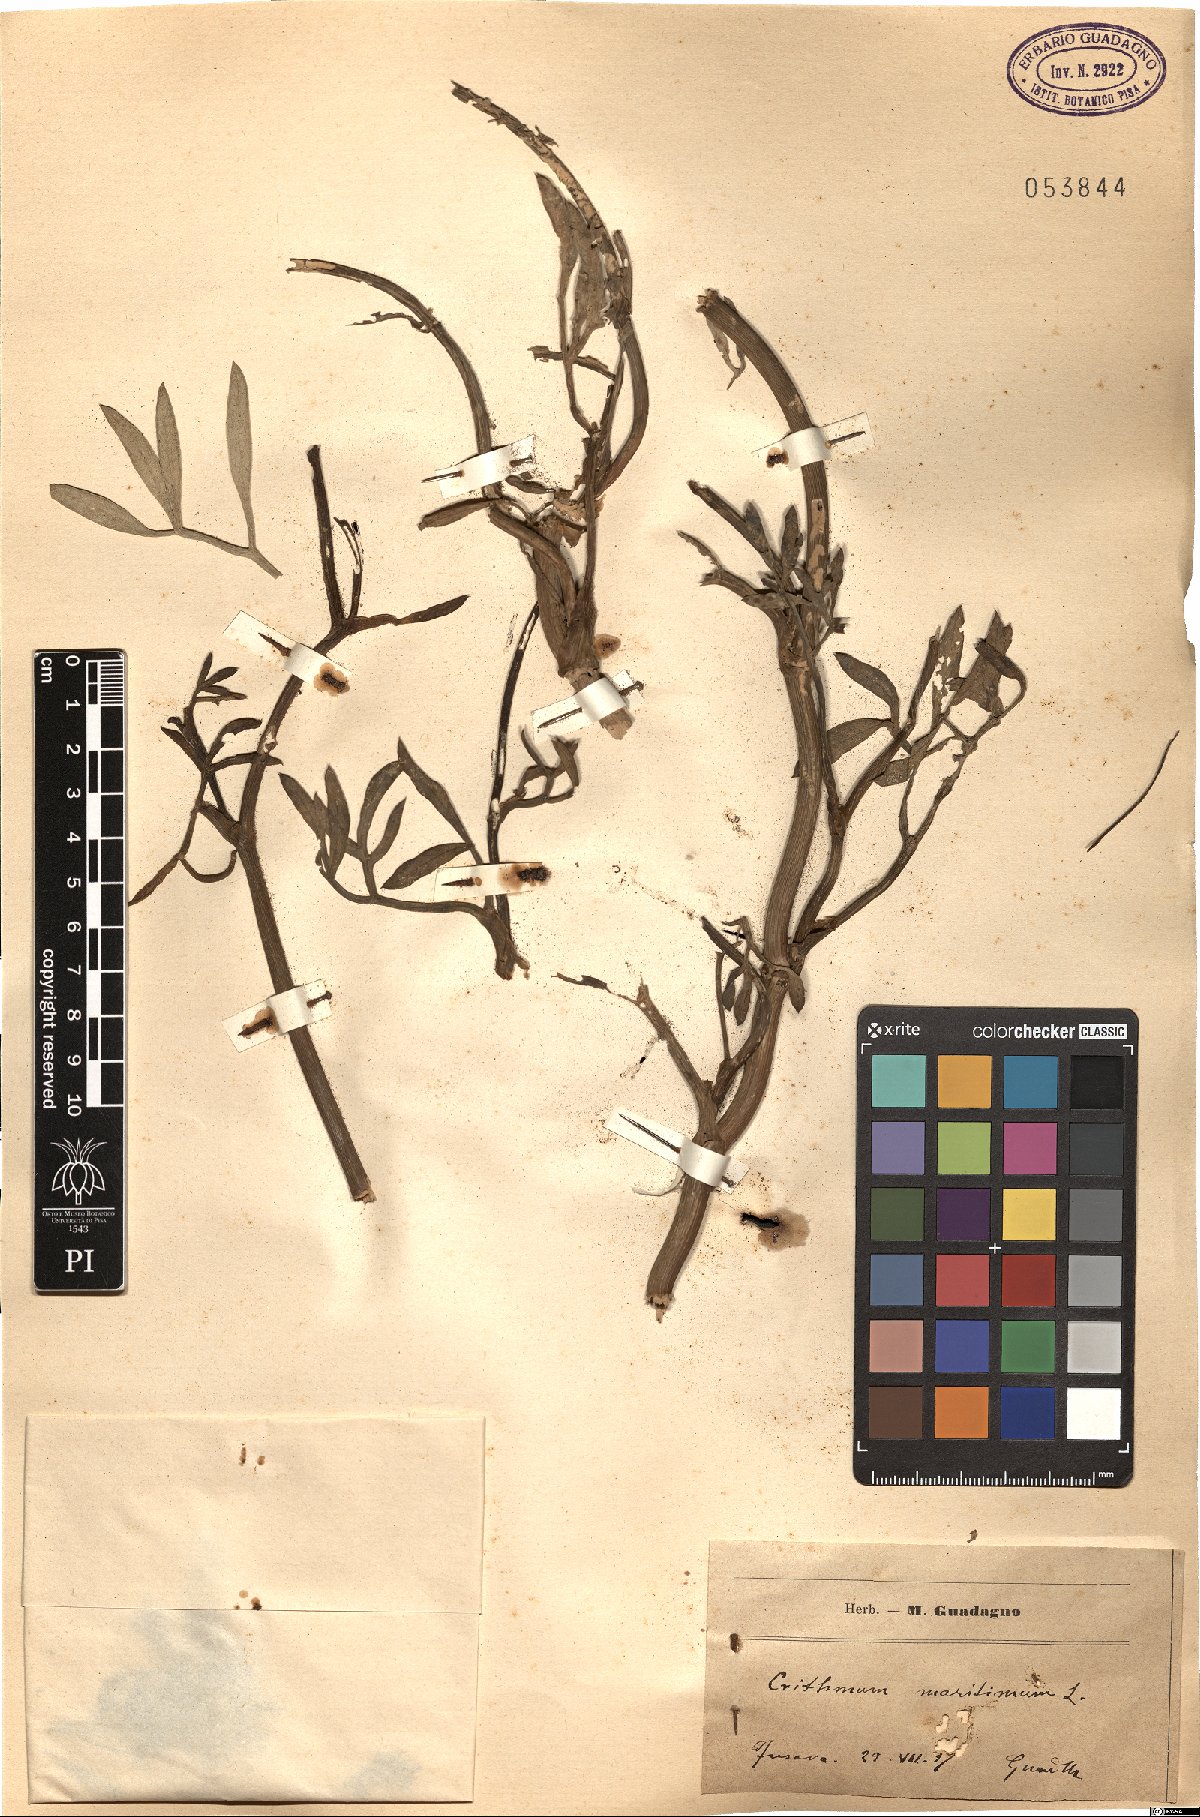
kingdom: Plantae
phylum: Tracheophyta
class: Magnoliopsida
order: Apiales
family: Apiaceae
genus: Crithmum
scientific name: Crithmum maritimum
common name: Rock samphire
